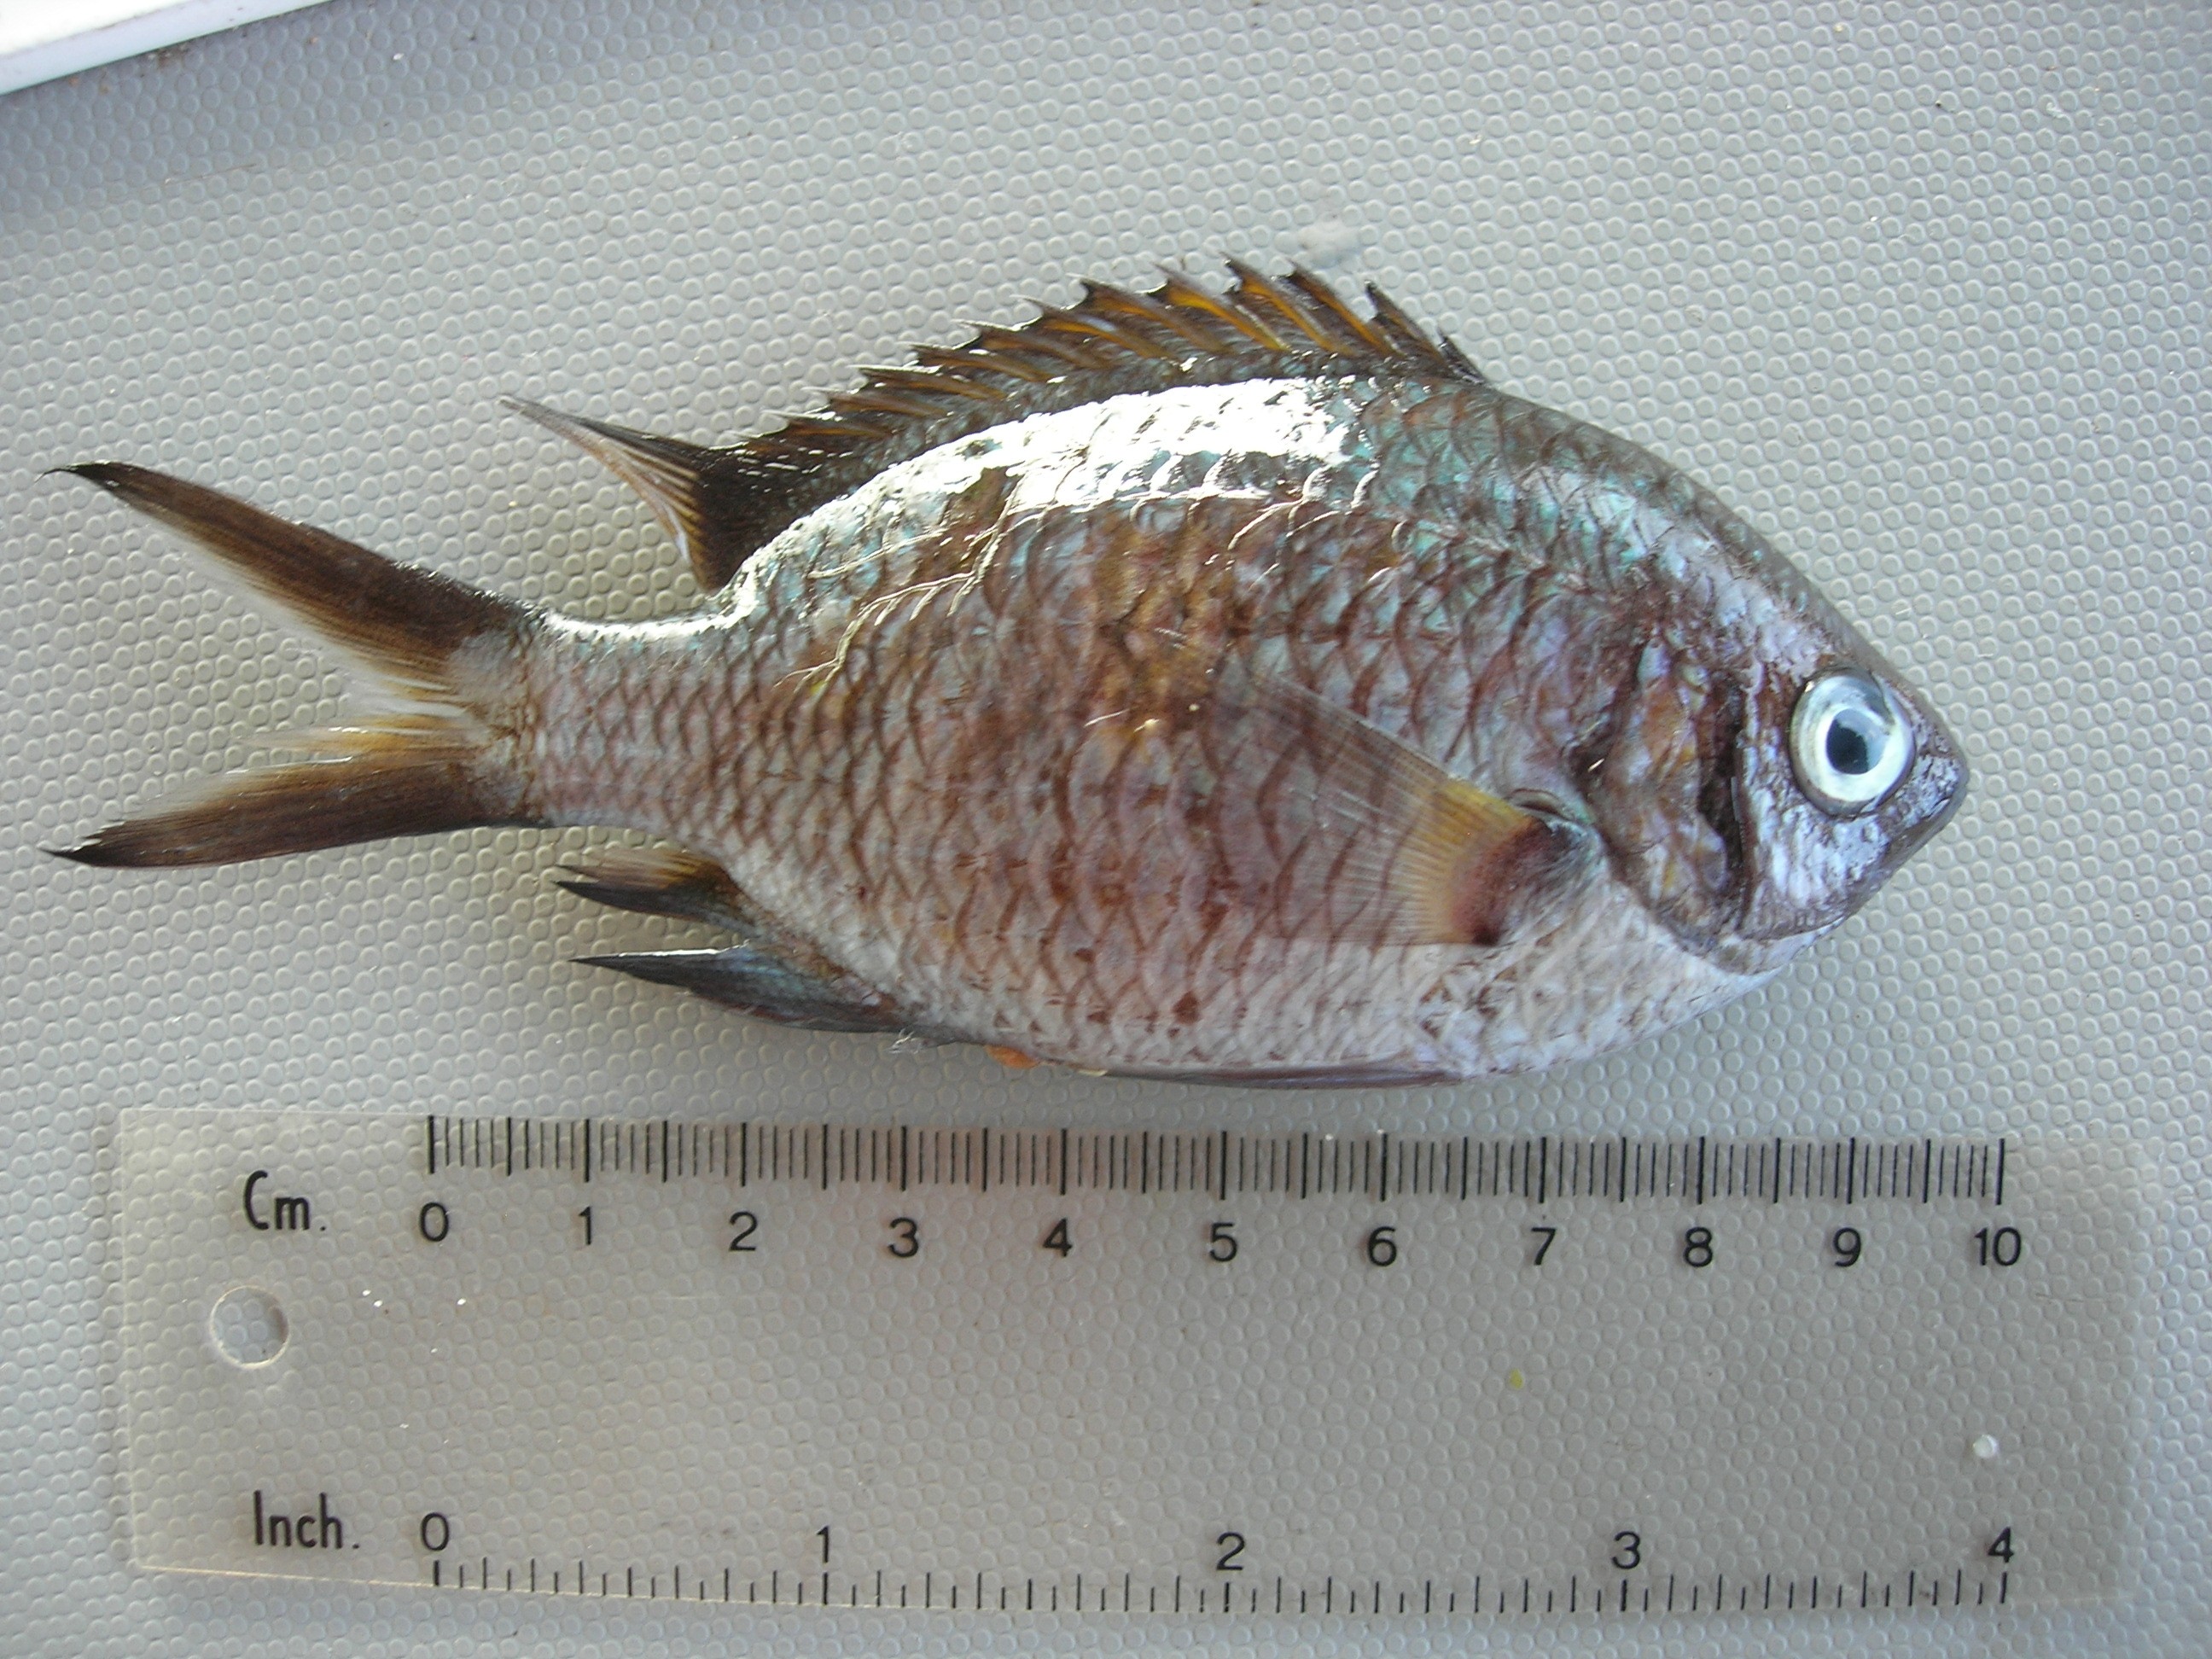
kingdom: Animalia
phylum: Chordata
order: Perciformes
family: Pomacentridae
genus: Chromis
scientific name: Chromis opercularis
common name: Doublebar chromis
